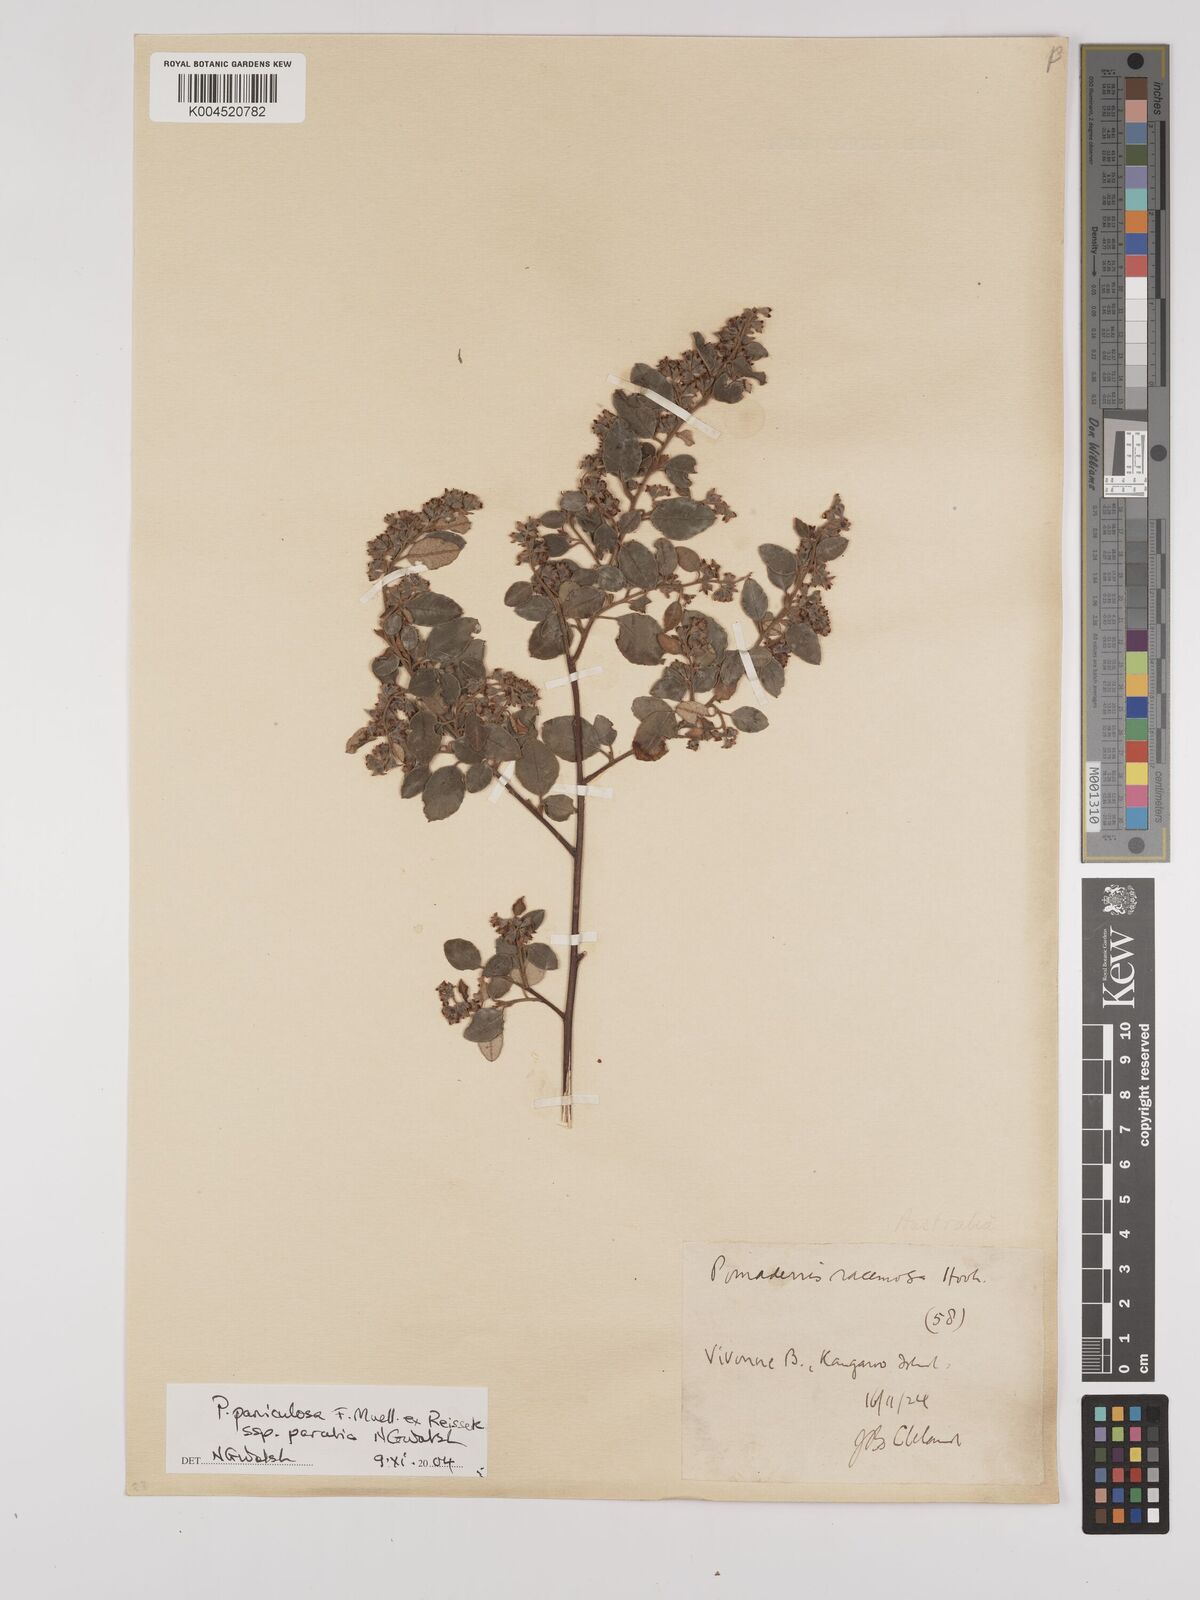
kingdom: Plantae
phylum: Tracheophyta
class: Magnoliopsida
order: Rosales
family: Rhamnaceae
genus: Pomaderris
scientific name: Pomaderris paniculosa
